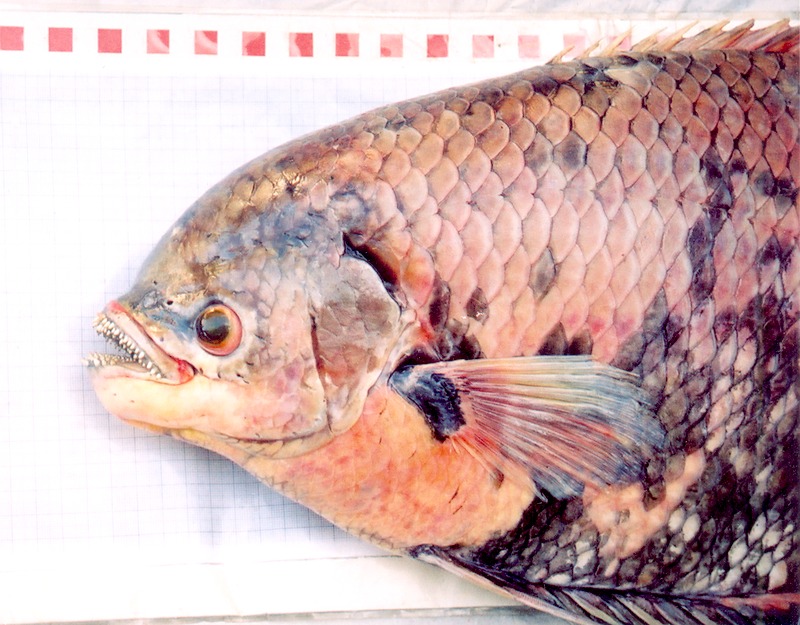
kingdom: Animalia
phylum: Chordata
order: Perciformes
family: Osphronemidae
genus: Osphronemus
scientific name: Osphronemus exodon
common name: Elephant ear gourami
